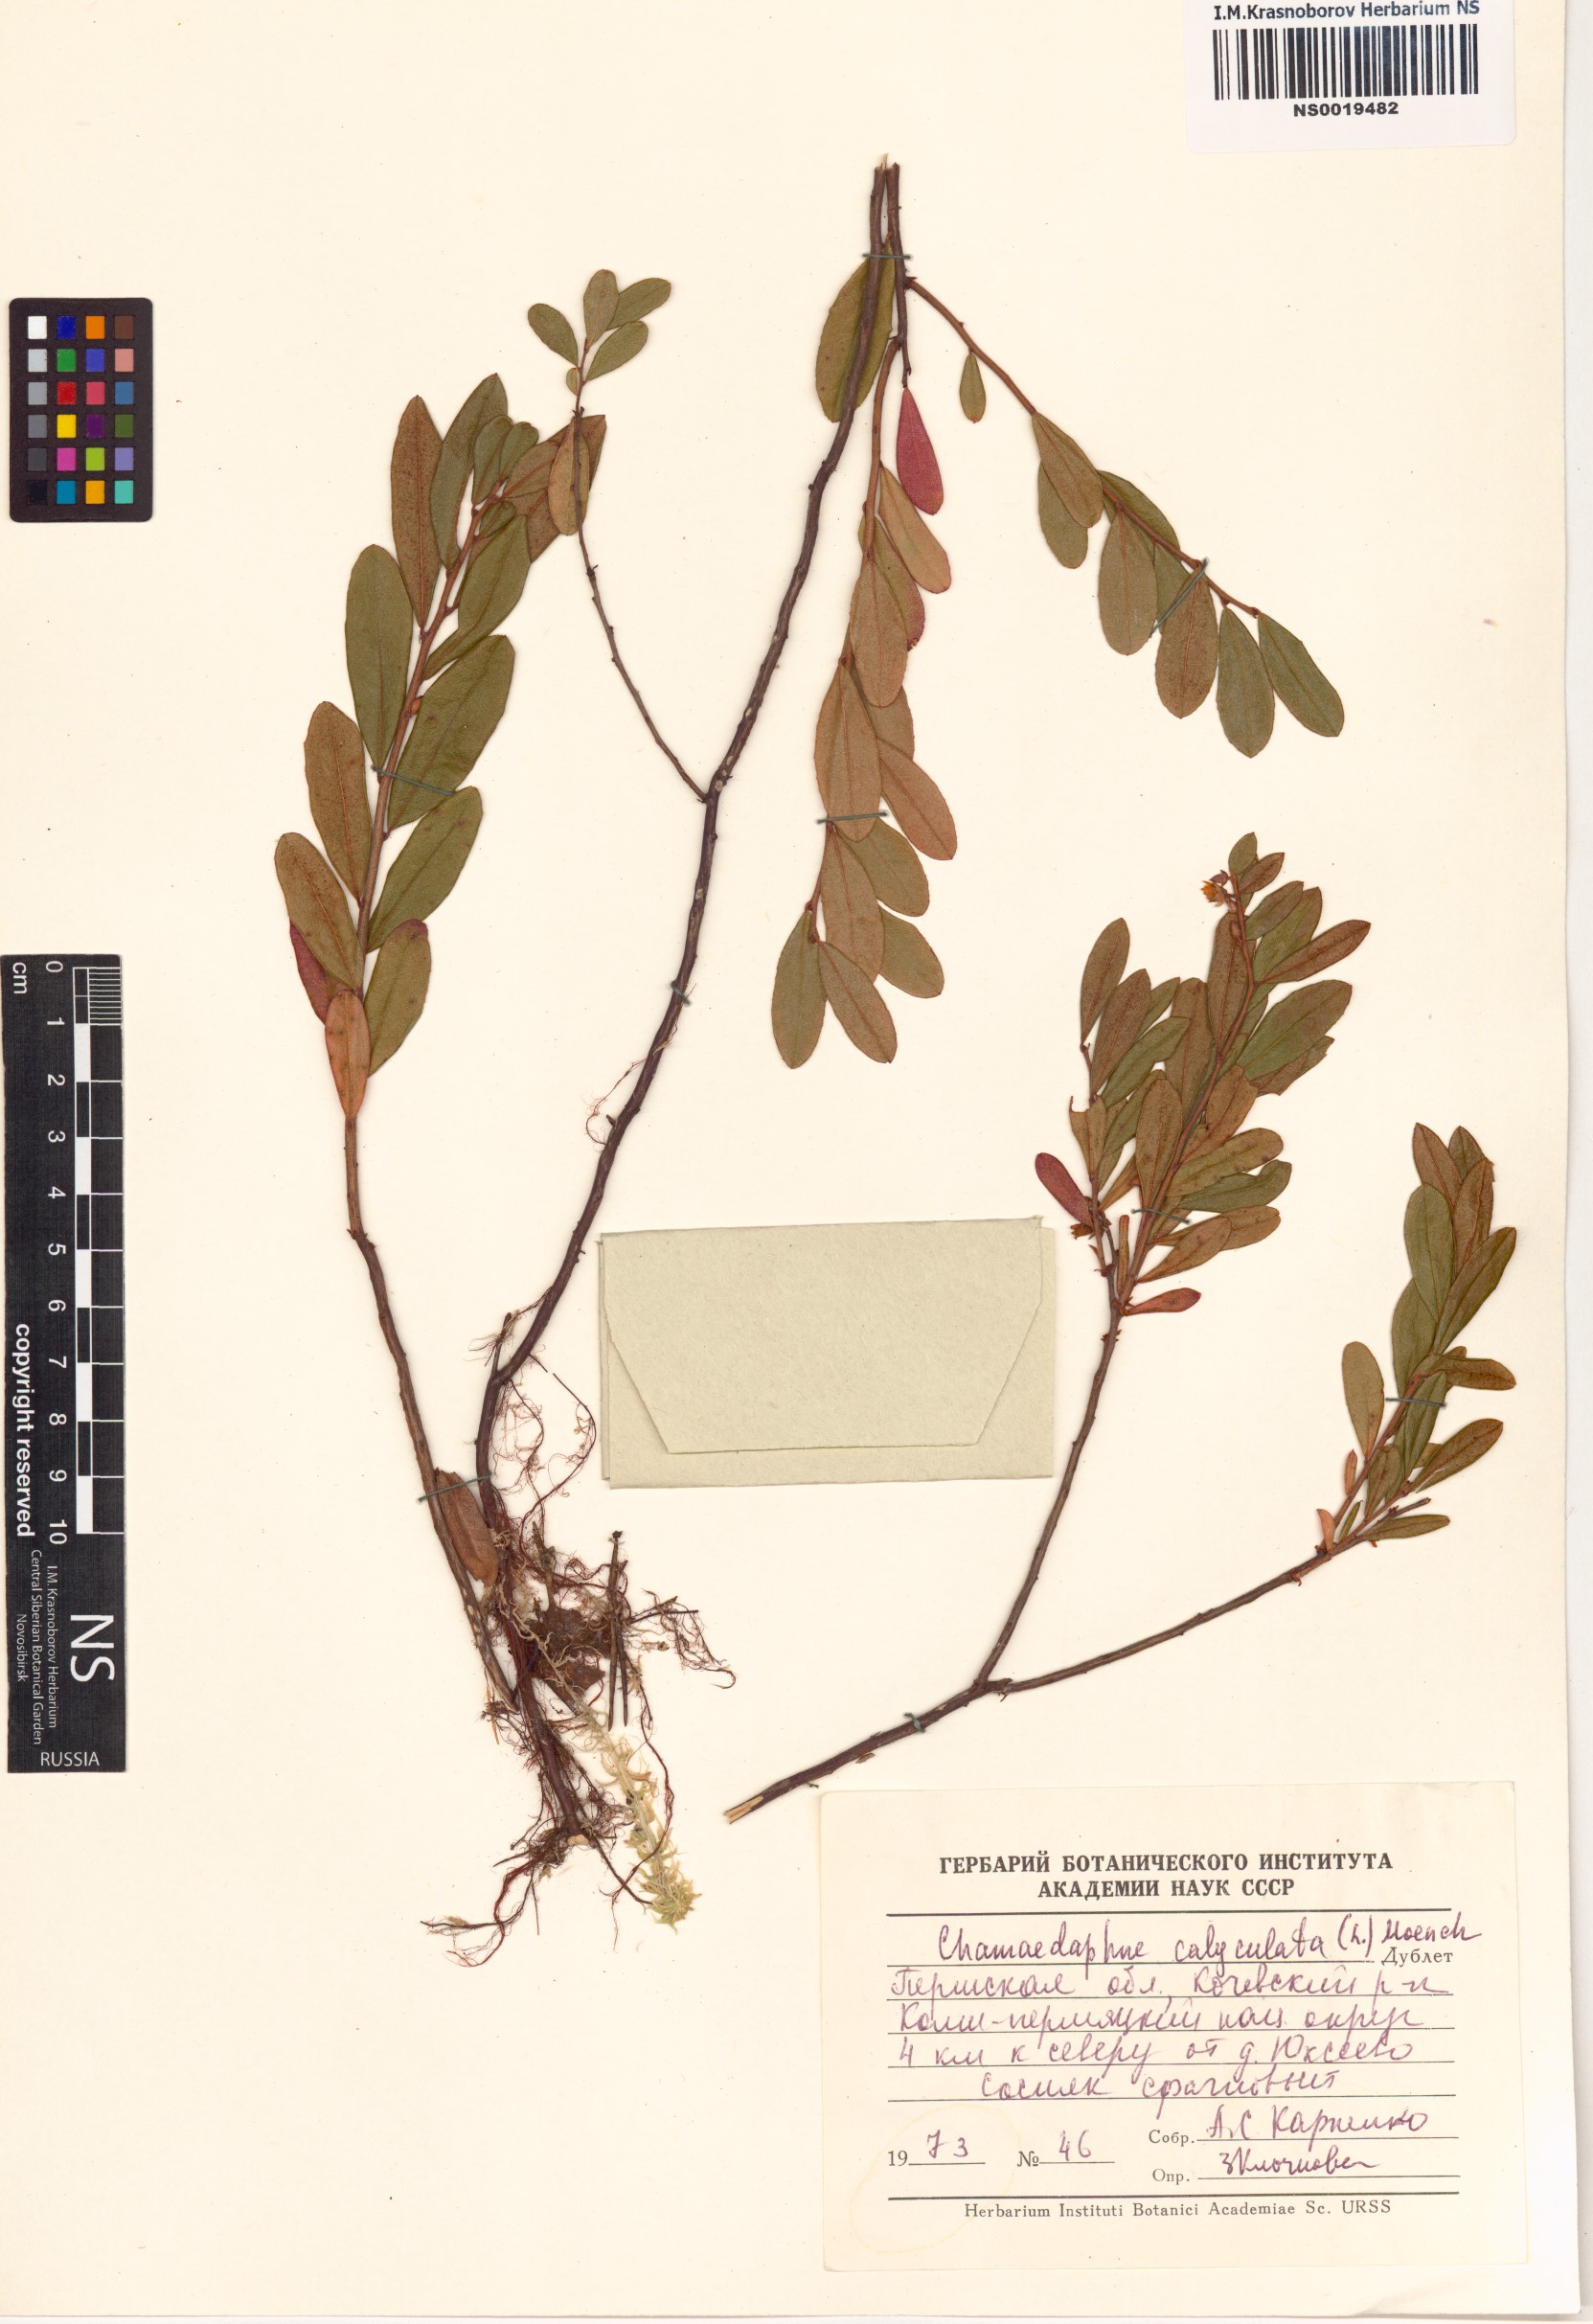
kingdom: Plantae
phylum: Tracheophyta
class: Magnoliopsida
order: Ericales
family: Ericaceae
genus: Chamaedaphne
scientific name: Chamaedaphne calyculata
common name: Leatherleaf
